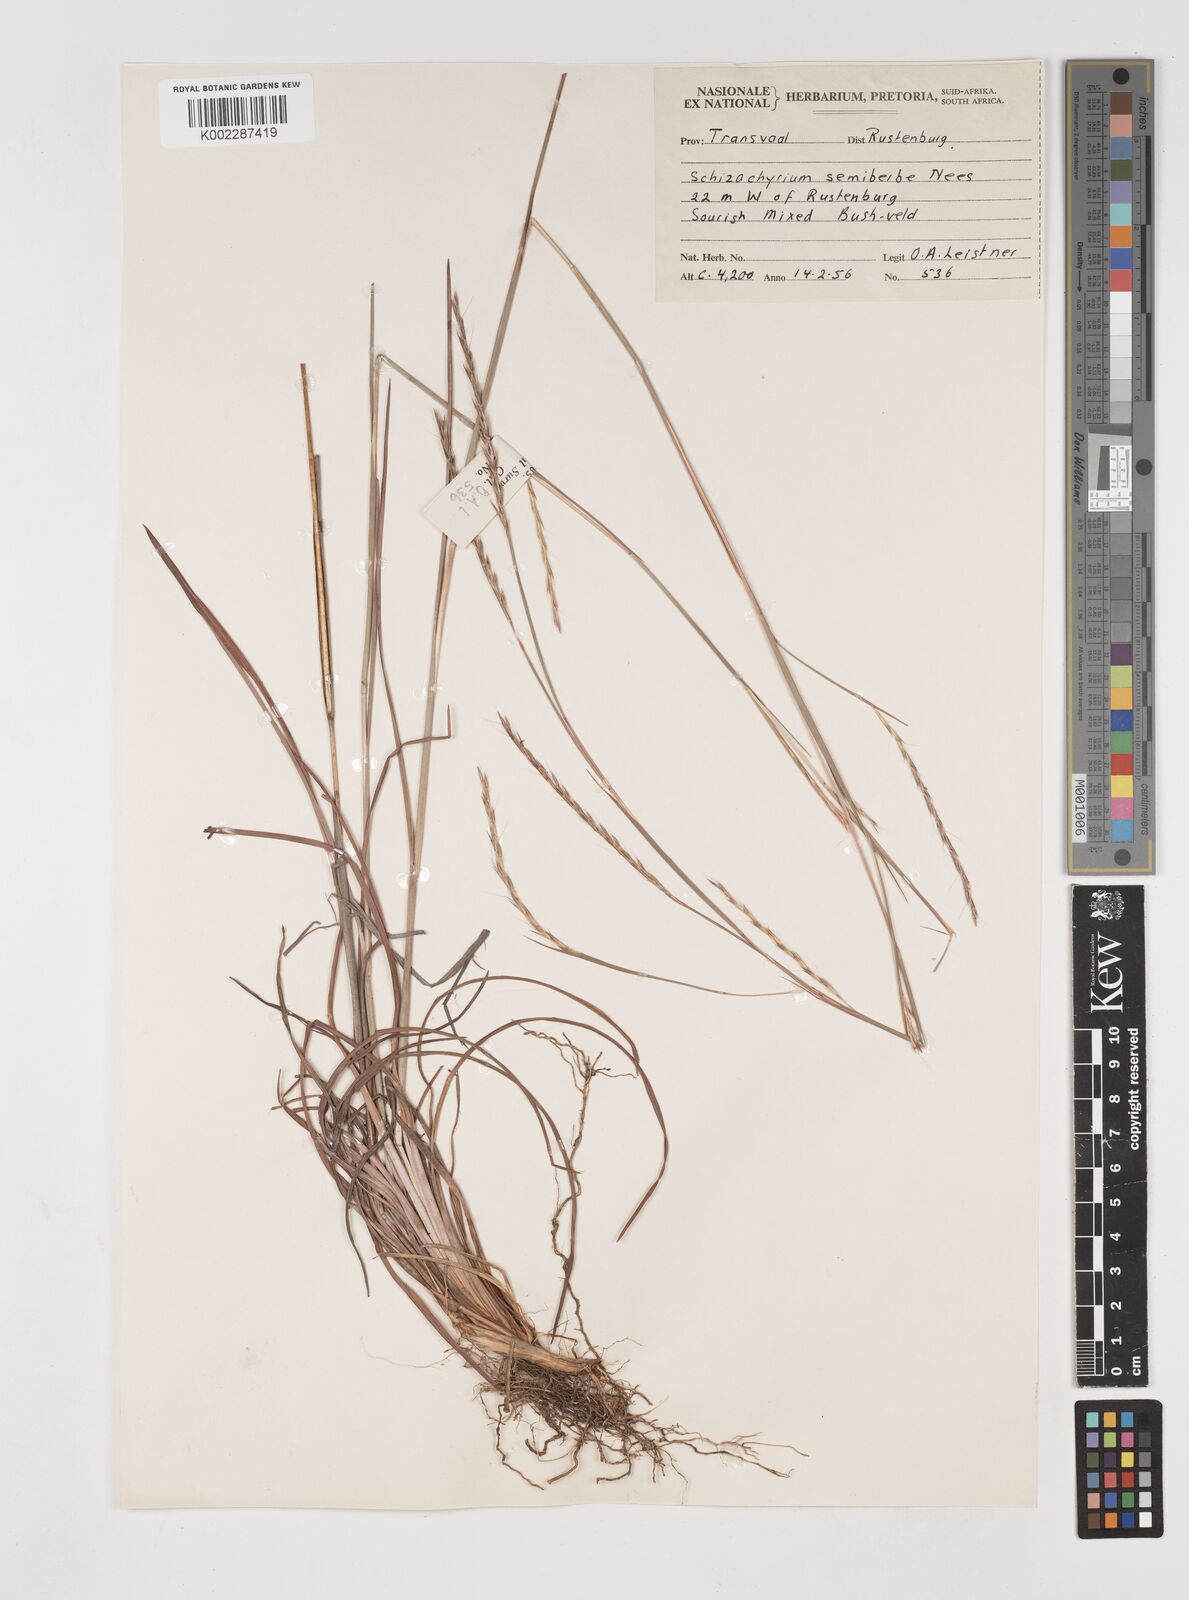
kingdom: Plantae
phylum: Tracheophyta
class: Liliopsida
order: Poales
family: Poaceae
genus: Schizachyrium
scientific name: Schizachyrium sanguineum
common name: Crimson bluestem
